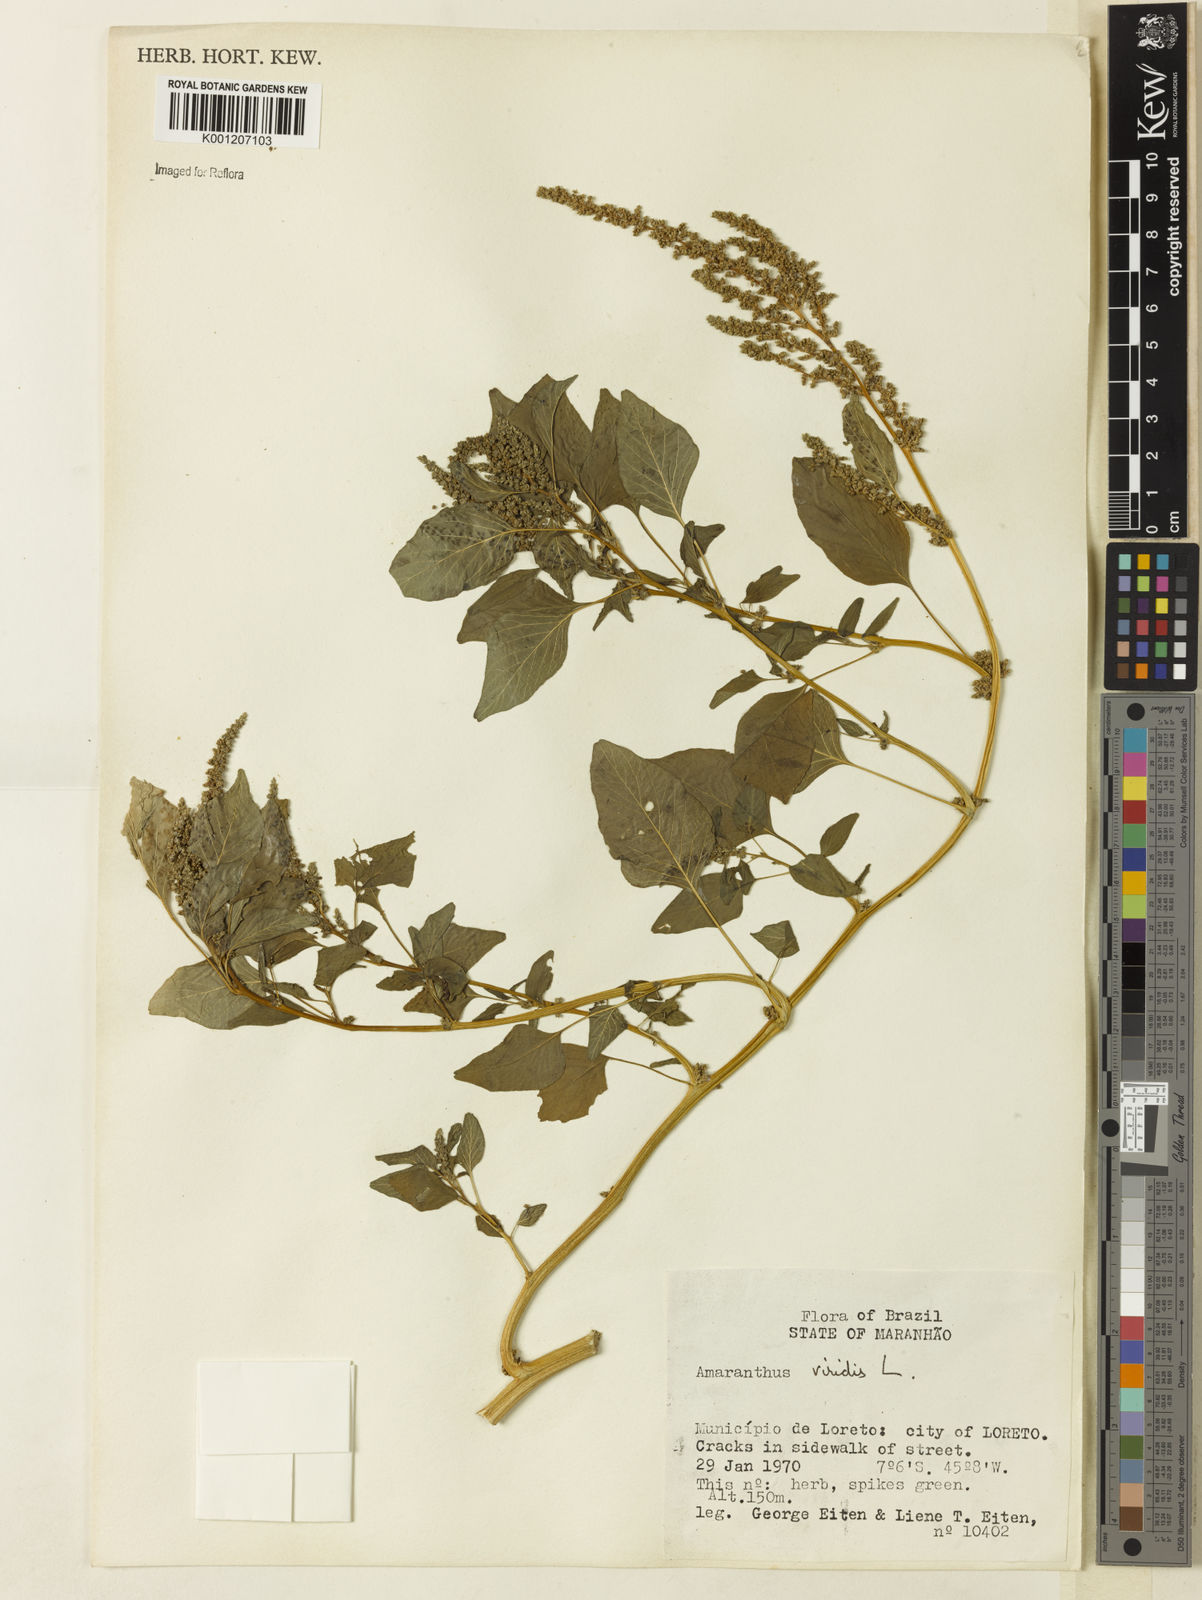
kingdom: Plantae
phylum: Tracheophyta
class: Magnoliopsida
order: Caryophyllales
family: Amaranthaceae
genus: Amaranthus
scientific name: Amaranthus viridis
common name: Slender amaranth
